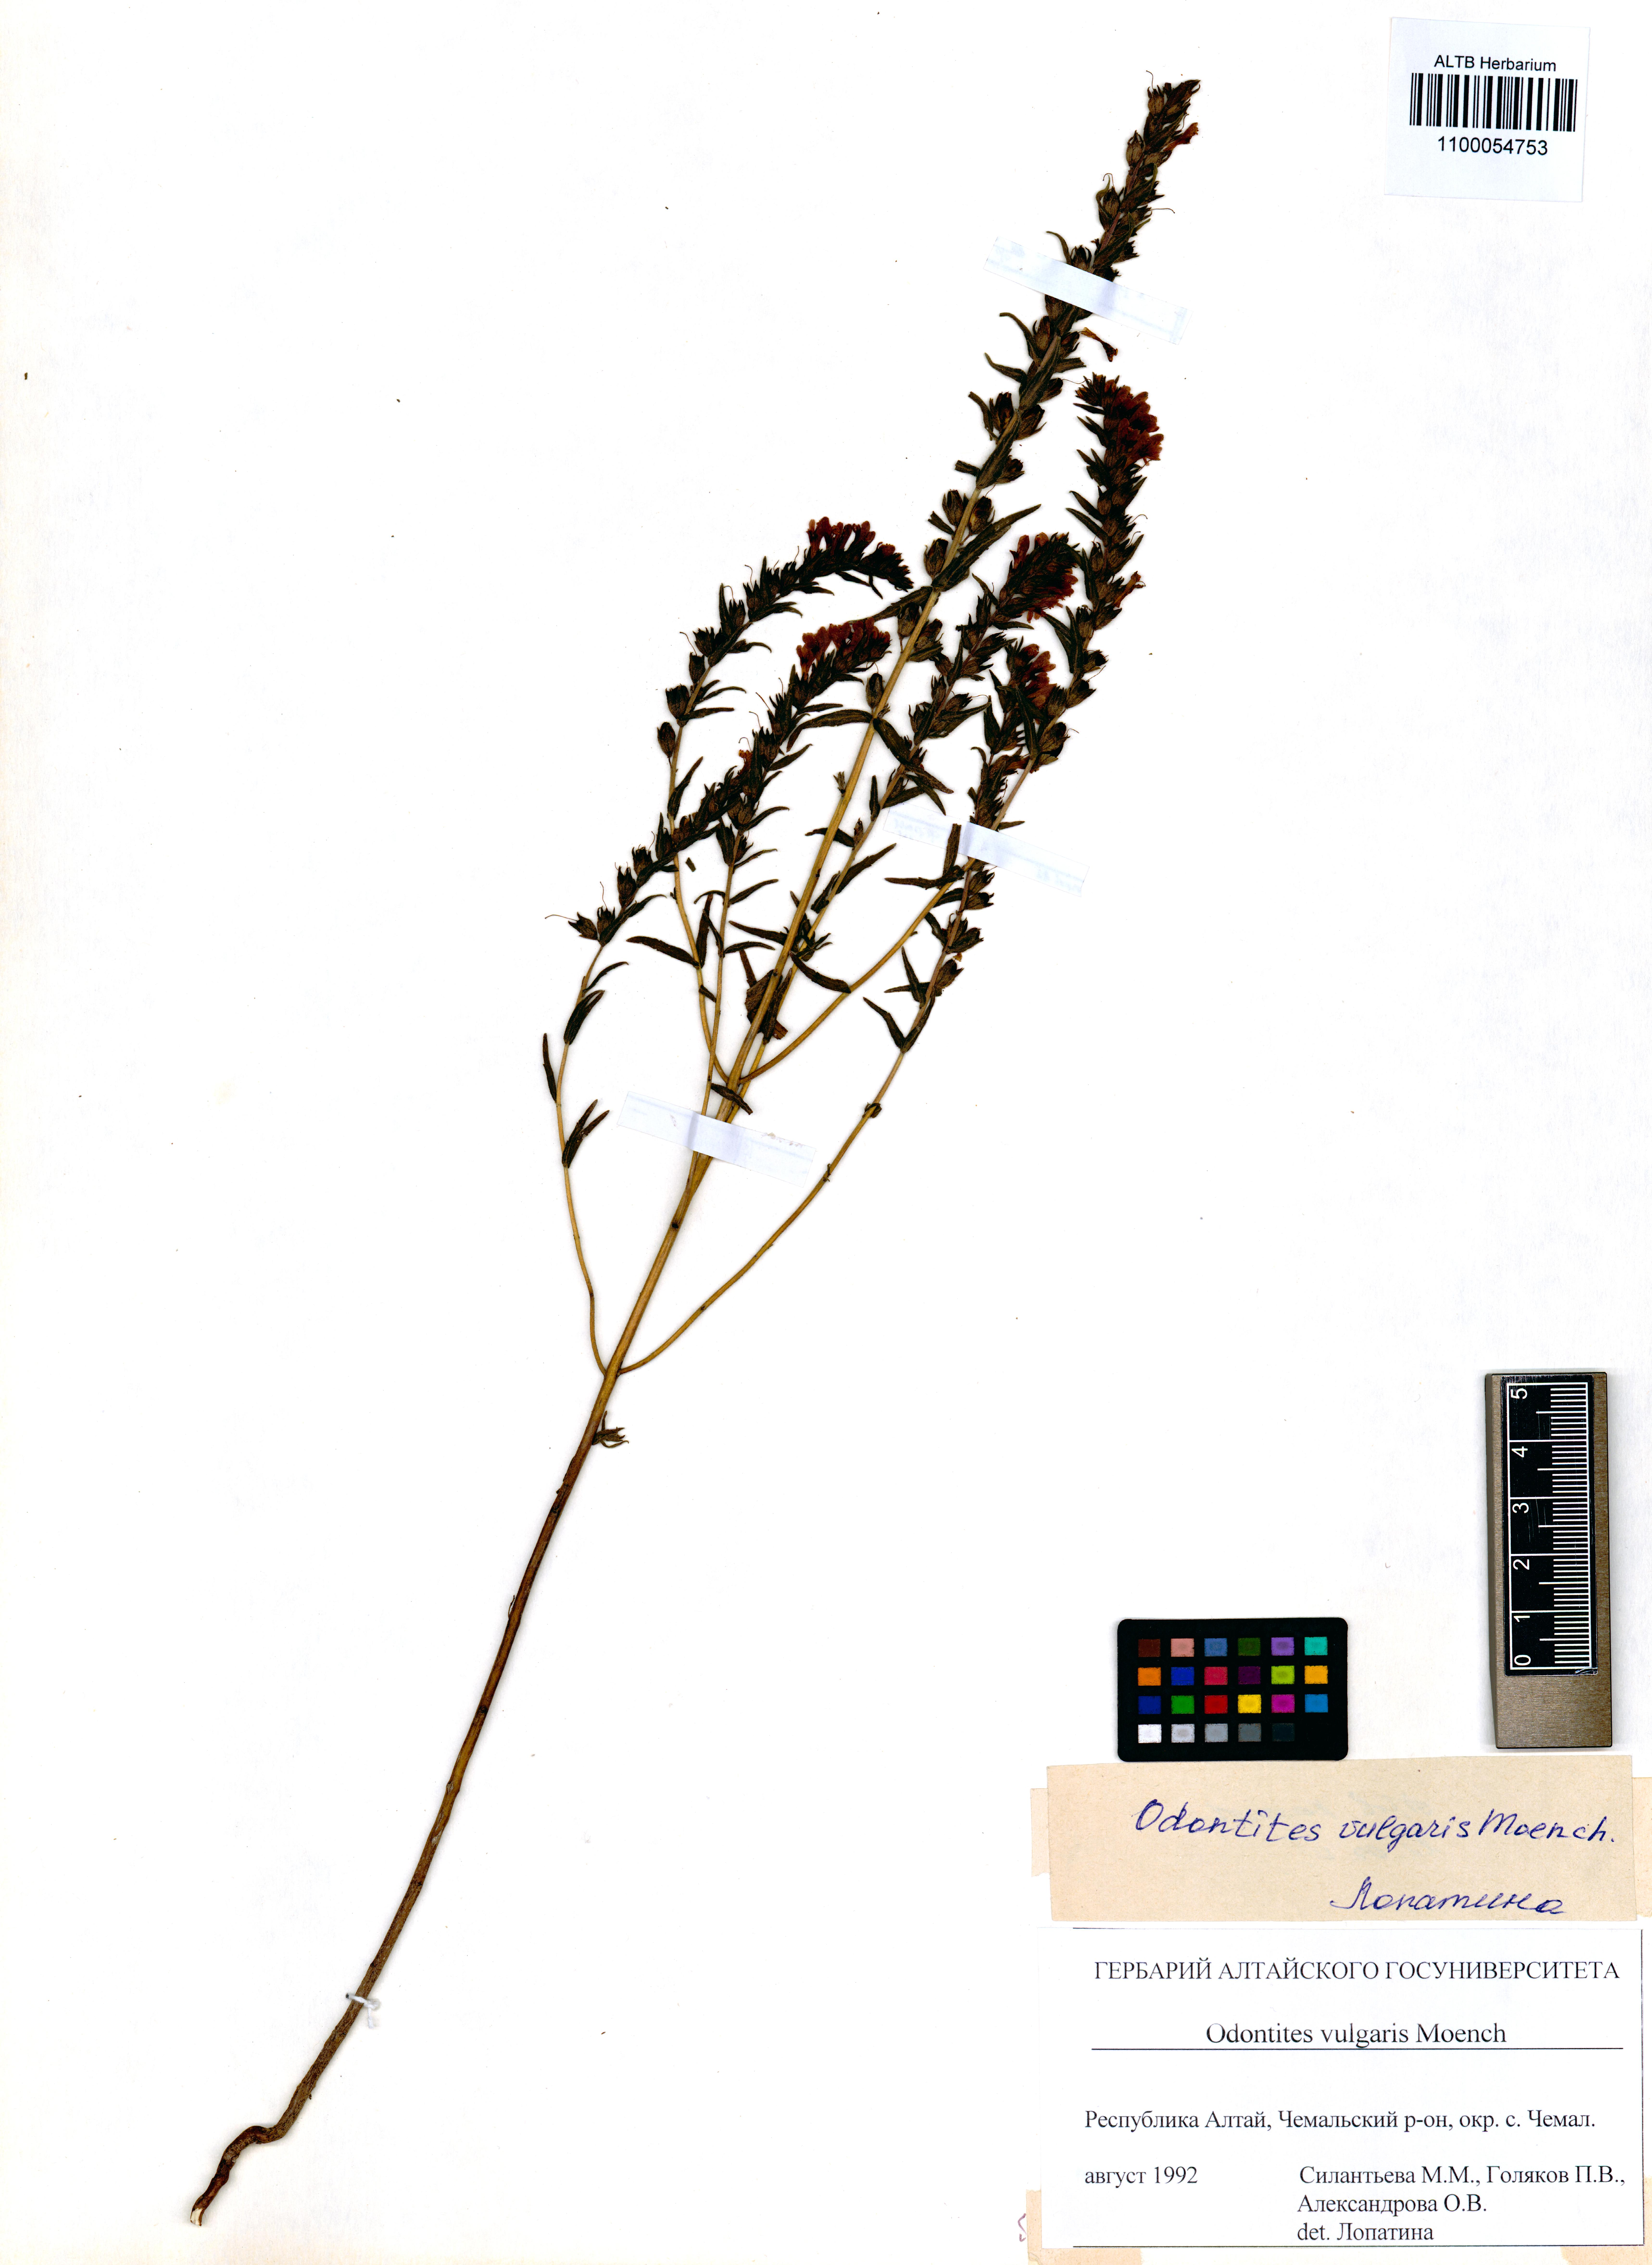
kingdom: Plantae
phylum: Tracheophyta
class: Magnoliopsida
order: Lamiales
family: Orobanchaceae
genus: Odontites
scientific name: Odontites vulgaris
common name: Broomrape
